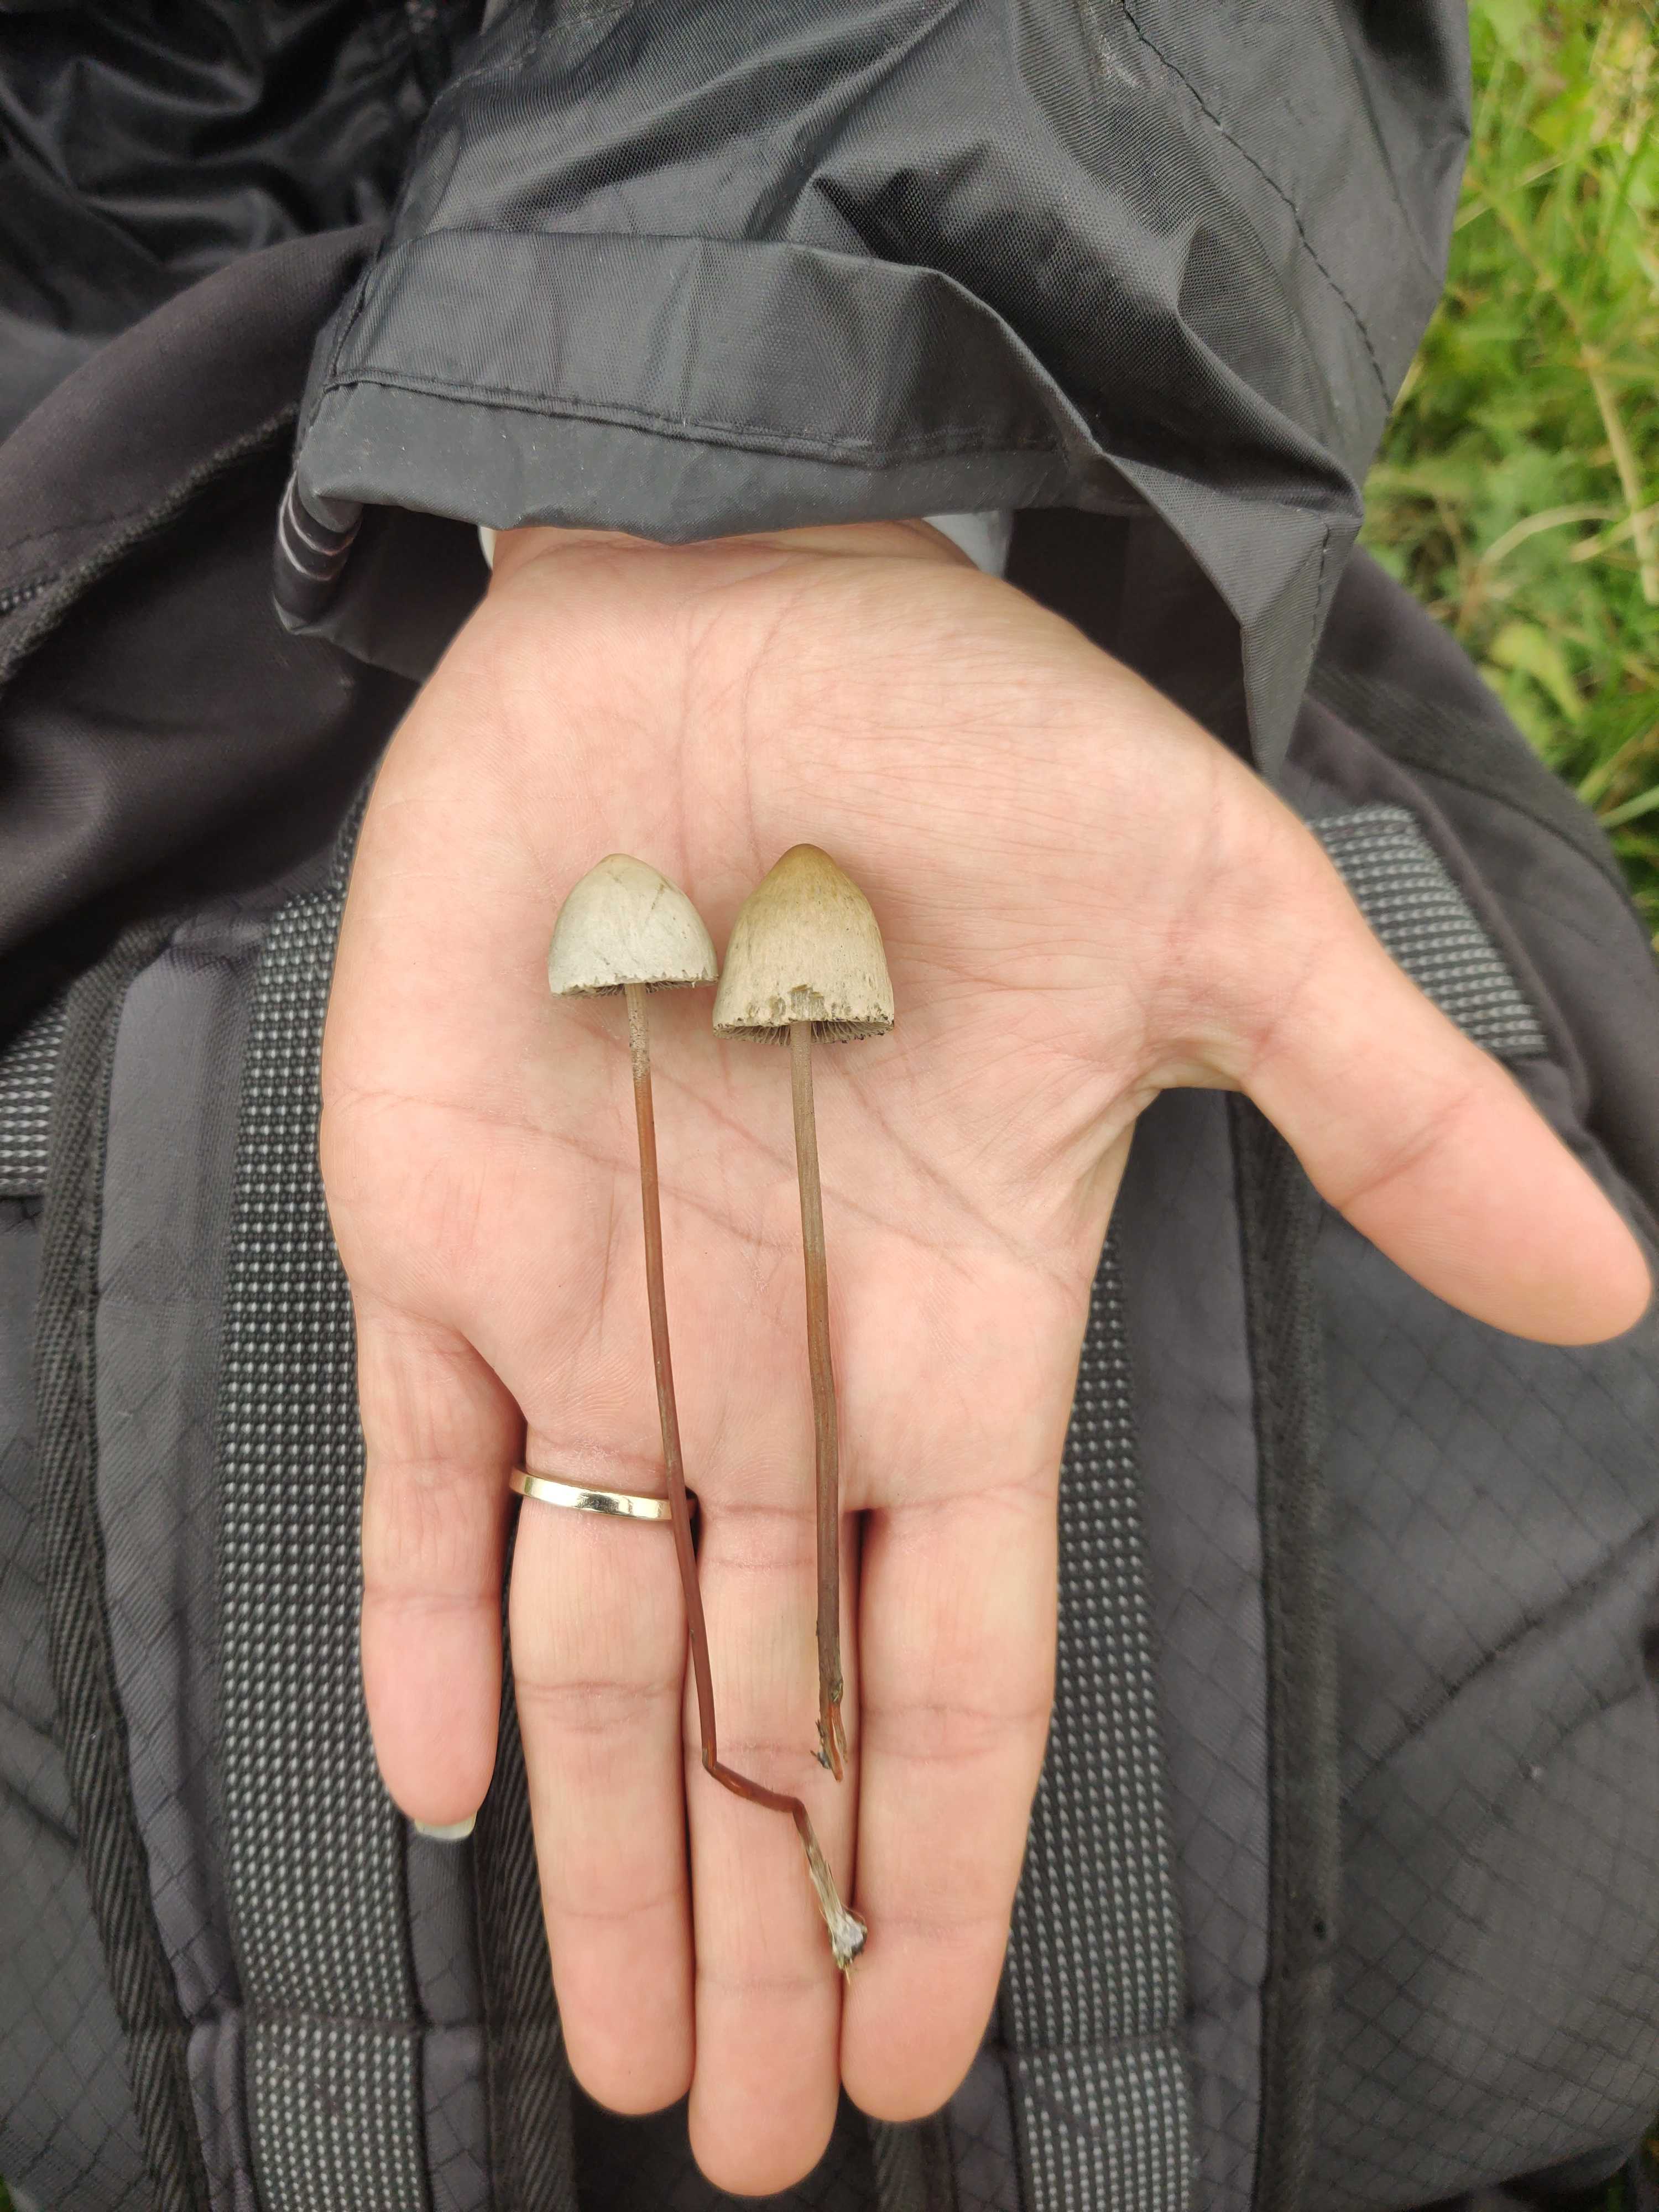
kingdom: Fungi
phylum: Basidiomycota
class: Agaricomycetes
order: Agaricales
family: Bolbitiaceae
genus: Panaeolus
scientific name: Panaeolus papilionaceus
